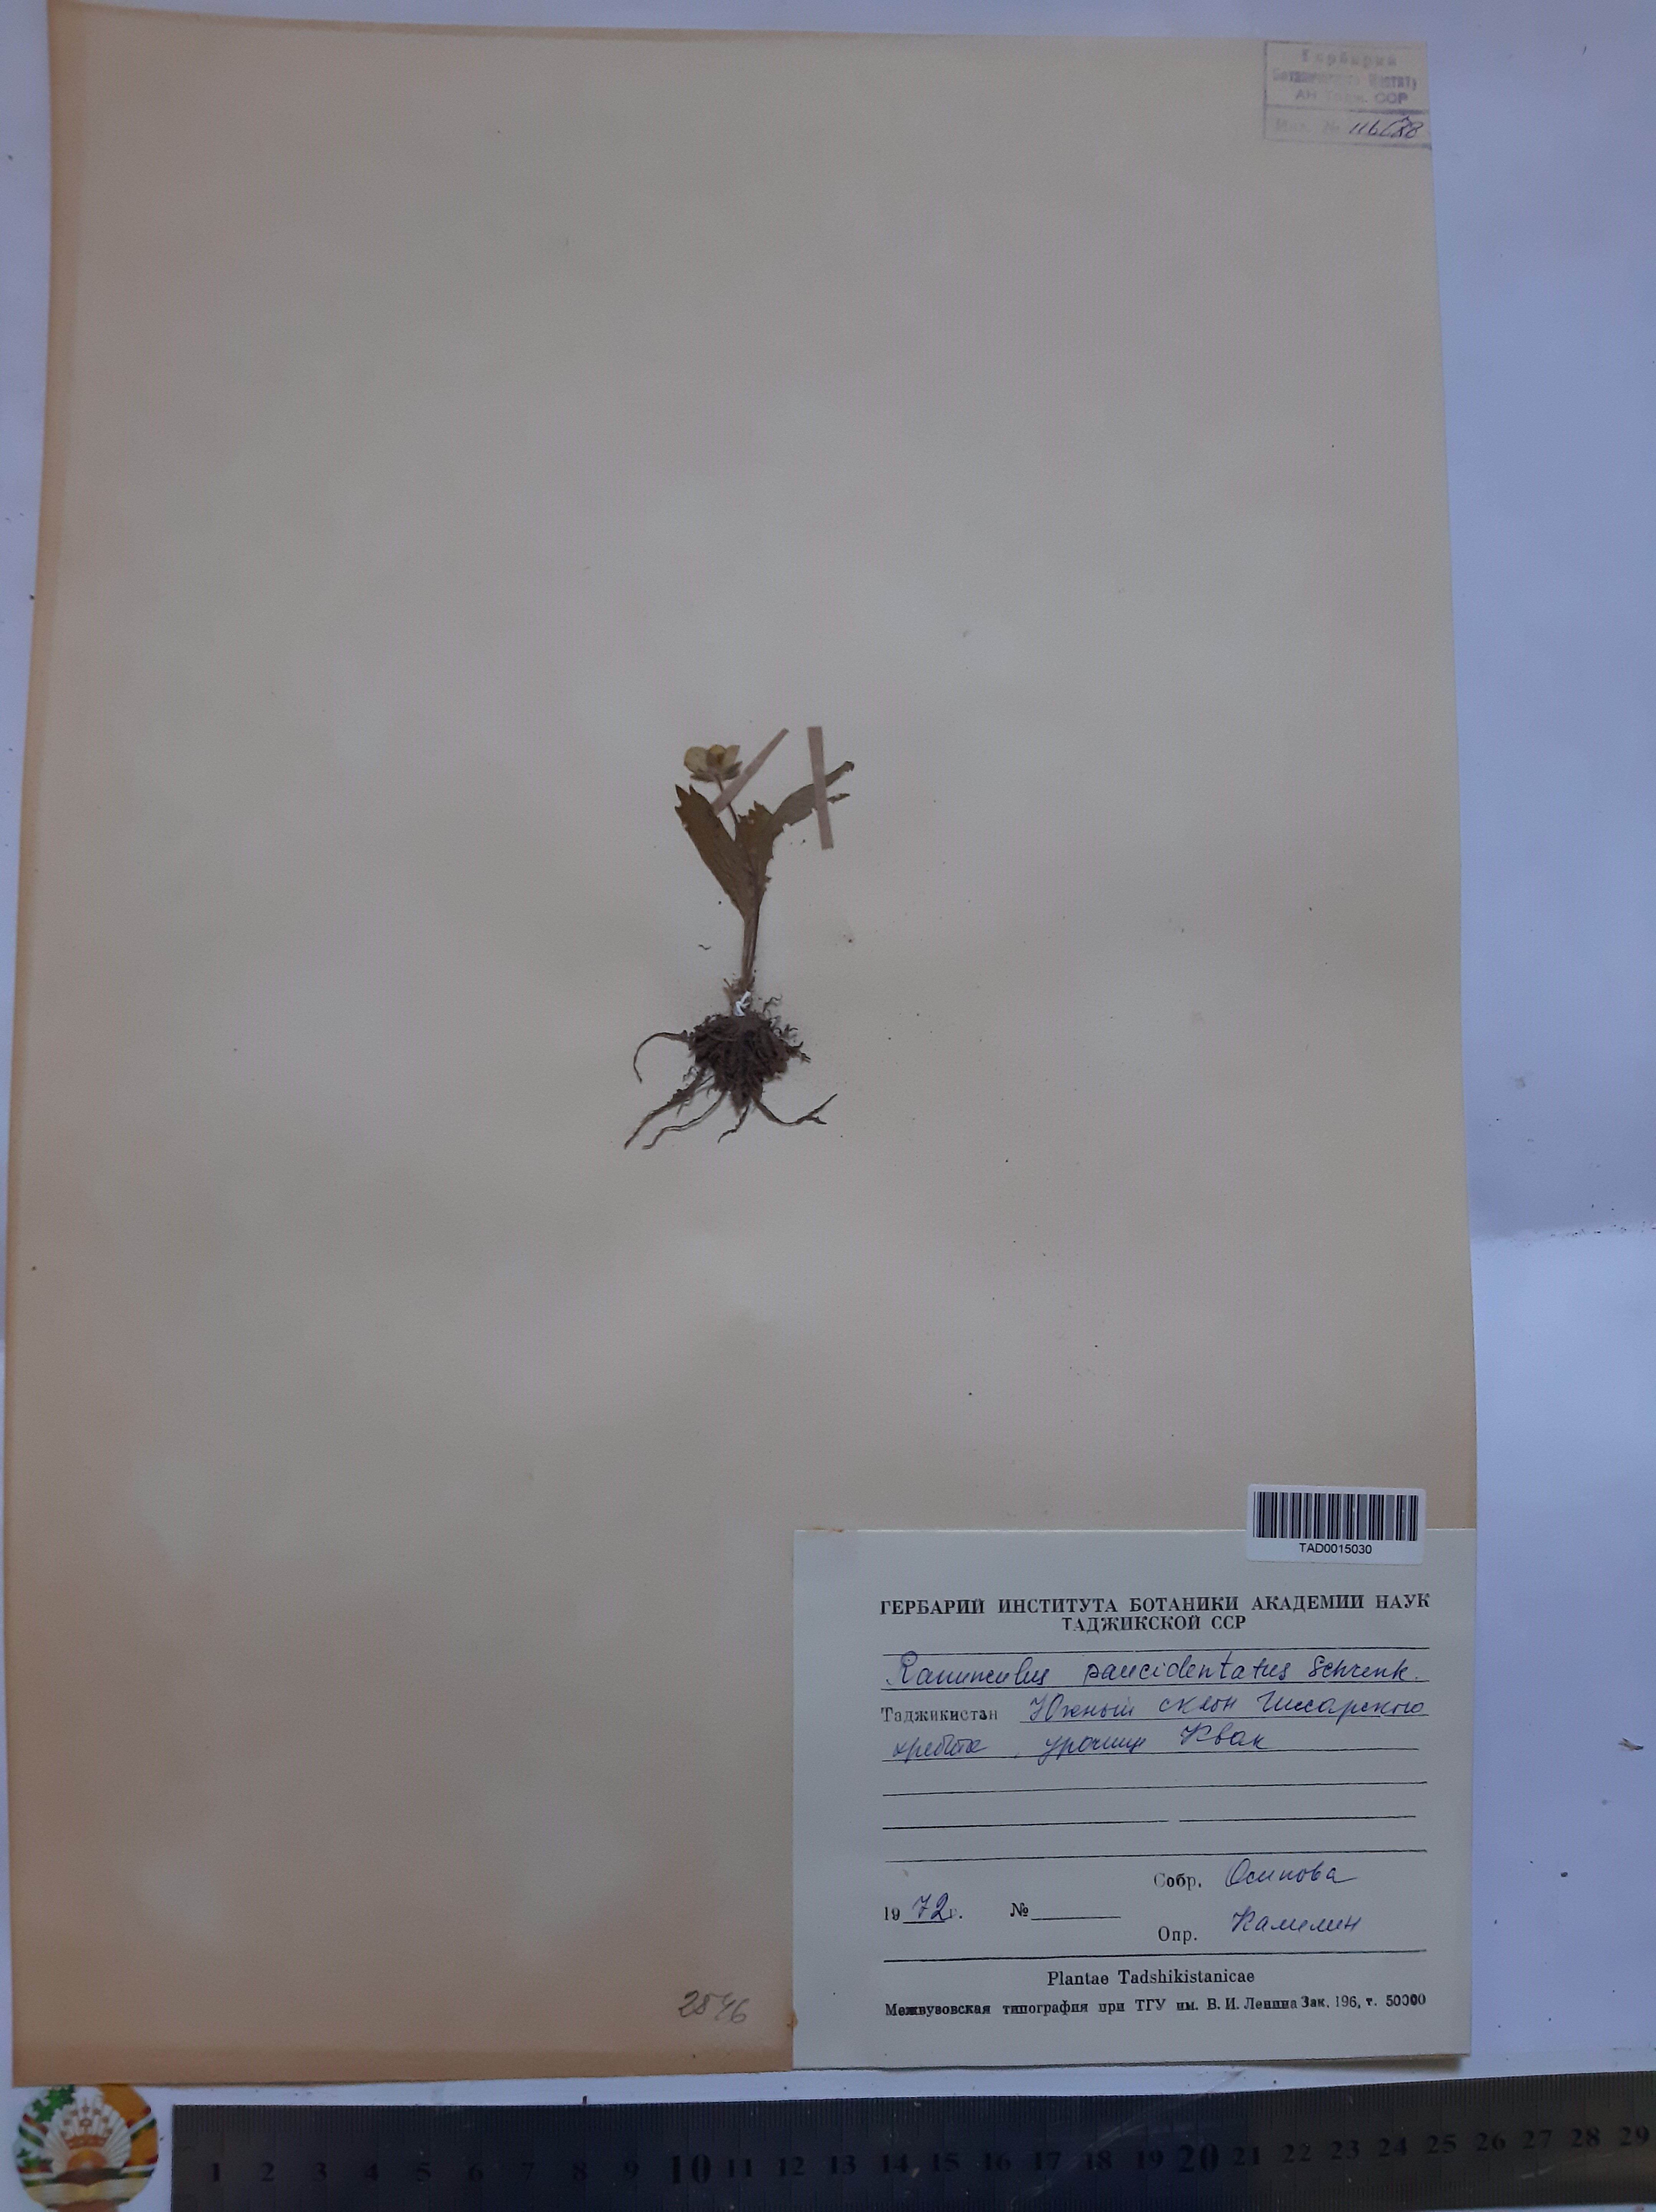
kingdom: Plantae
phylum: Tracheophyta
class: Magnoliopsida
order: Ranunculales
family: Ranunculaceae
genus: Ranunculus
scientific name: Ranunculus paucidentatus
